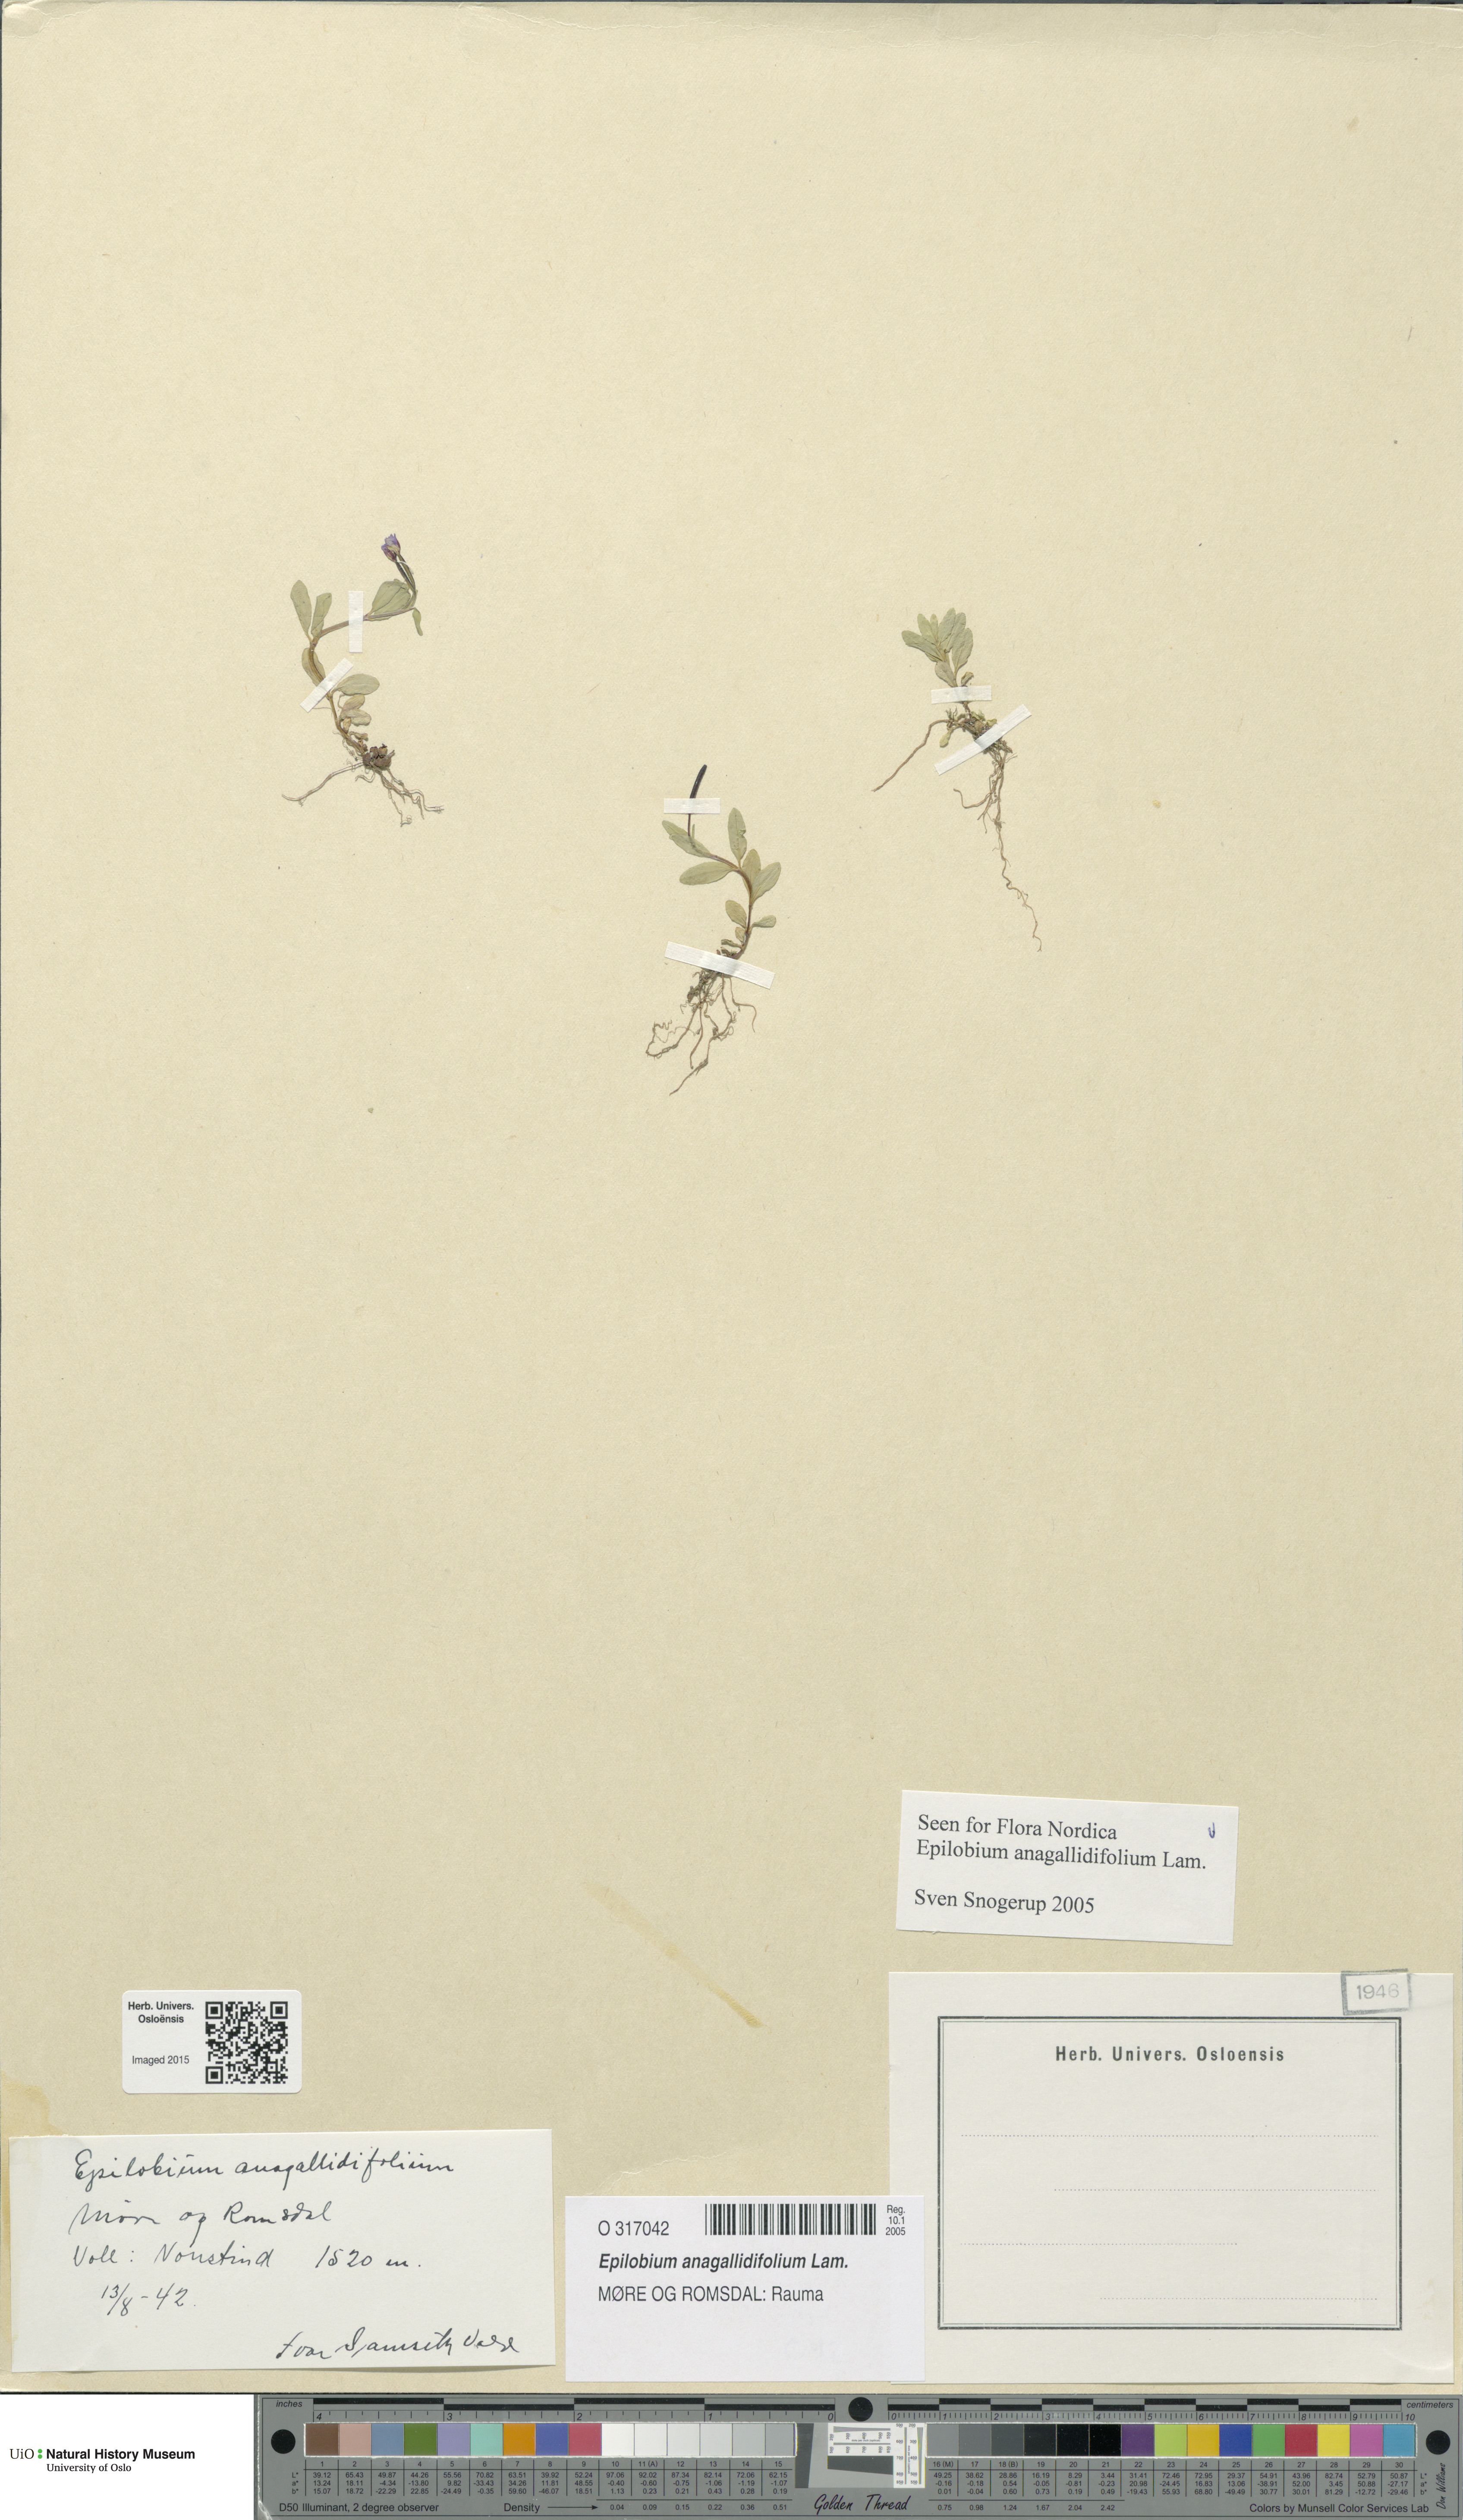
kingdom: Plantae
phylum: Tracheophyta
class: Magnoliopsida
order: Myrtales
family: Onagraceae
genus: Epilobium
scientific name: Epilobium anagallidifolium
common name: Alpine willowherb
